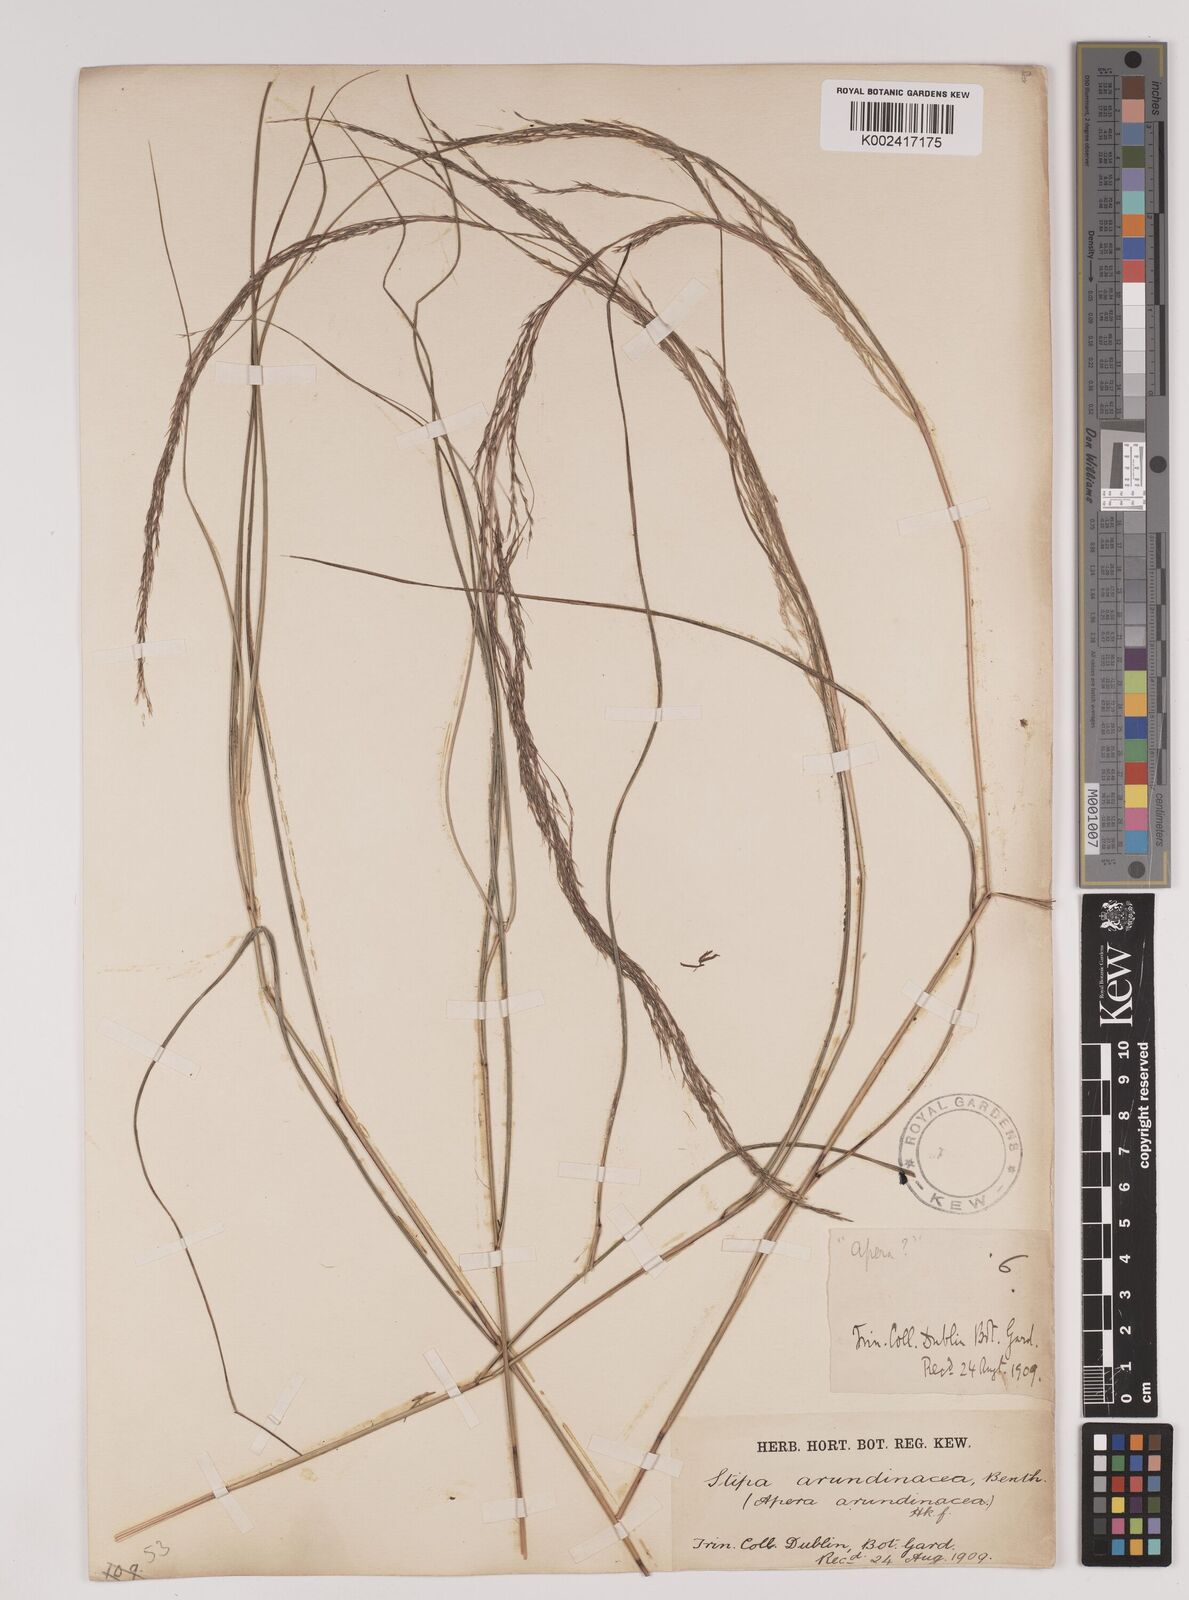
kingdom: Plantae
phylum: Tracheophyta
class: Liliopsida
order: Poales
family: Poaceae
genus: Stipa
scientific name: Stipa
